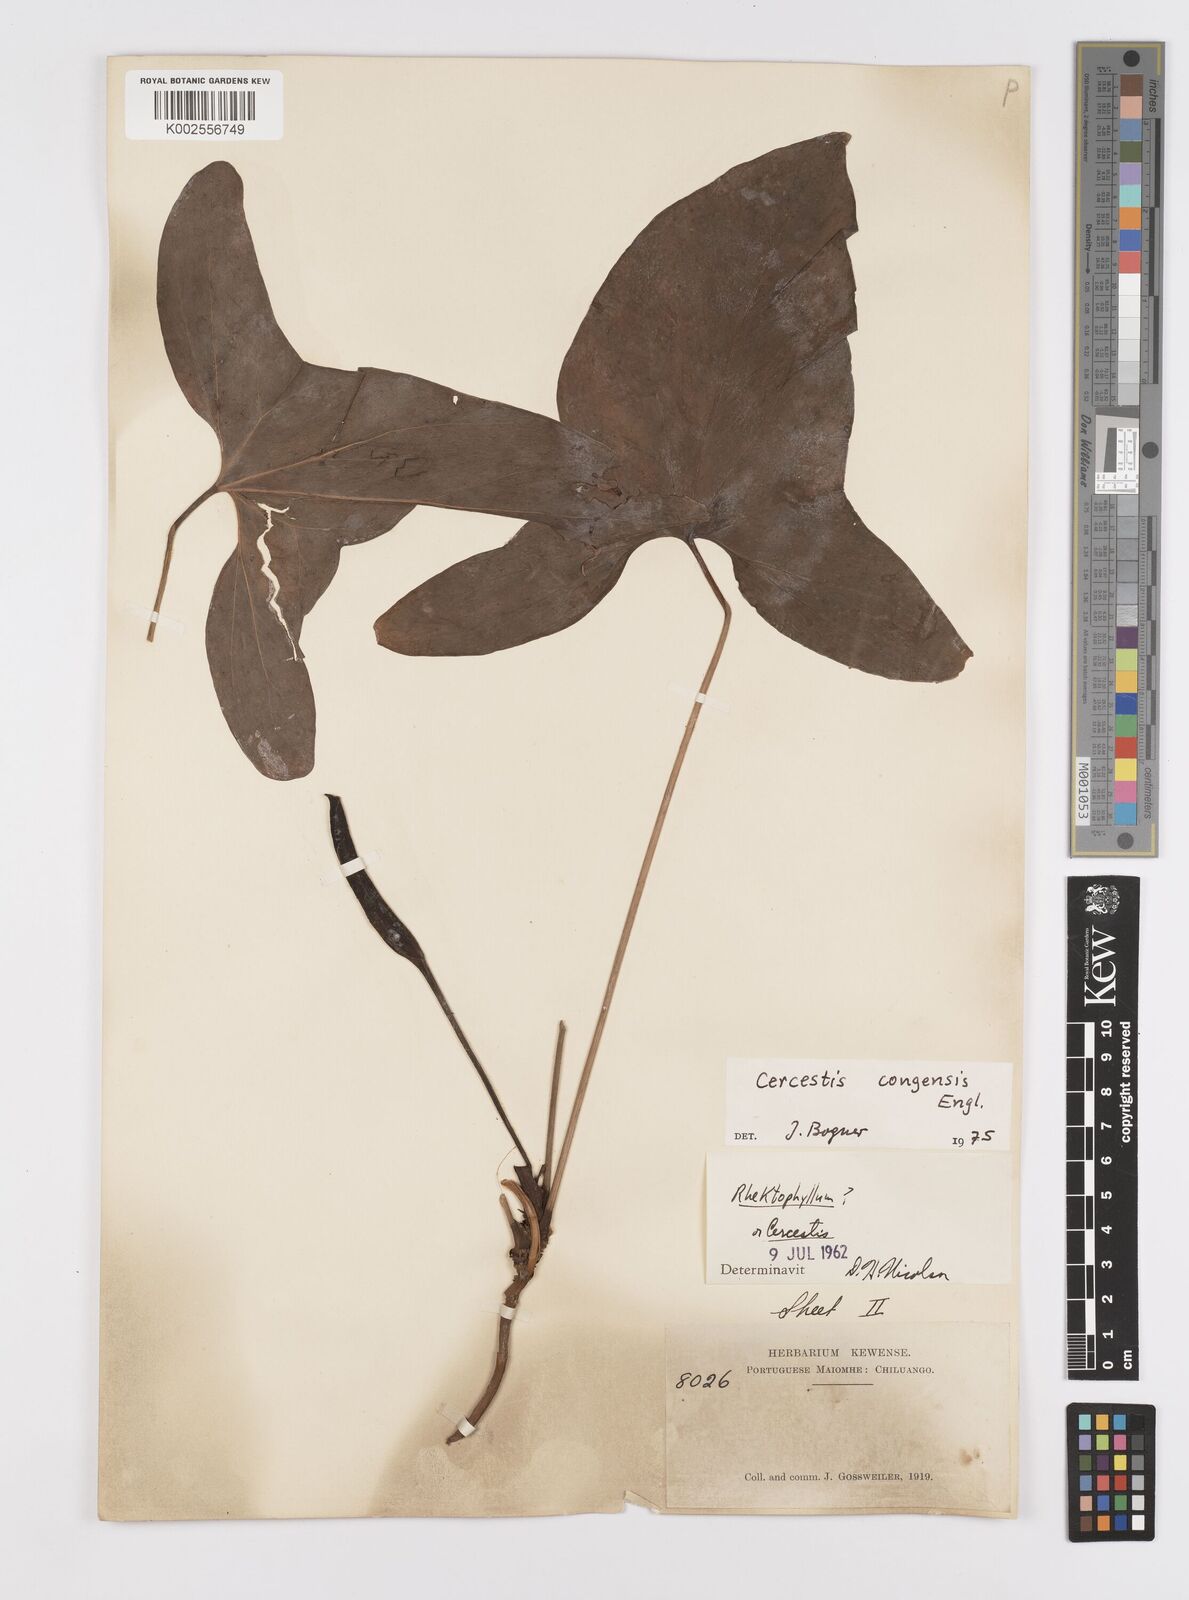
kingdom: Plantae
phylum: Tracheophyta
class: Liliopsida
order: Alismatales
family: Araceae
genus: Cercestis
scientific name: Cercestis congoensis
